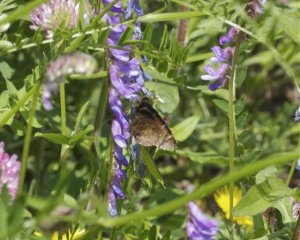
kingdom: Animalia
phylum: Arthropoda
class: Insecta
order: Lepidoptera
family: Hesperiidae
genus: Autochton
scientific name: Autochton
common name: Northern Cloudywing
